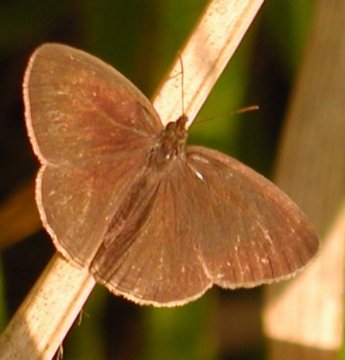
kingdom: Animalia
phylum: Arthropoda
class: Insecta
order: Lepidoptera
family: Nymphalidae
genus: Hermeuptychia
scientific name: Hermeuptychia hermes
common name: Carolina Satyr
